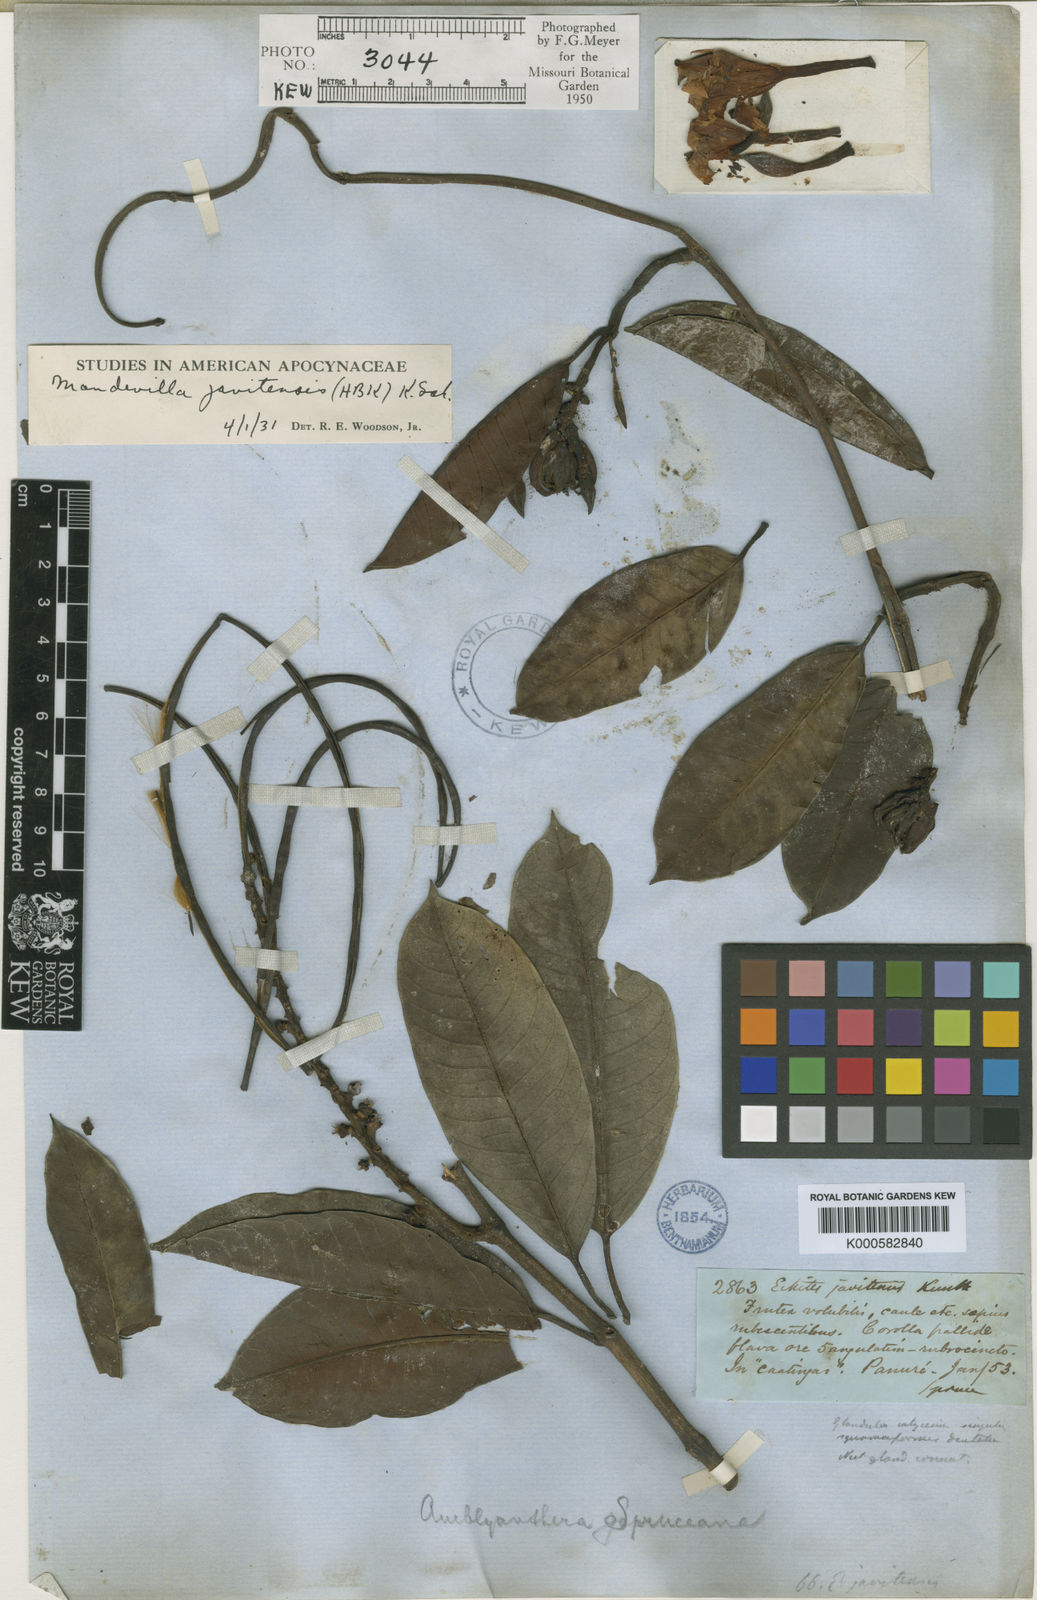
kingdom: Plantae
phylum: Tracheophyta
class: Magnoliopsida
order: Gentianales
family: Apocynaceae
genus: Mandevilla
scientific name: Mandevilla
